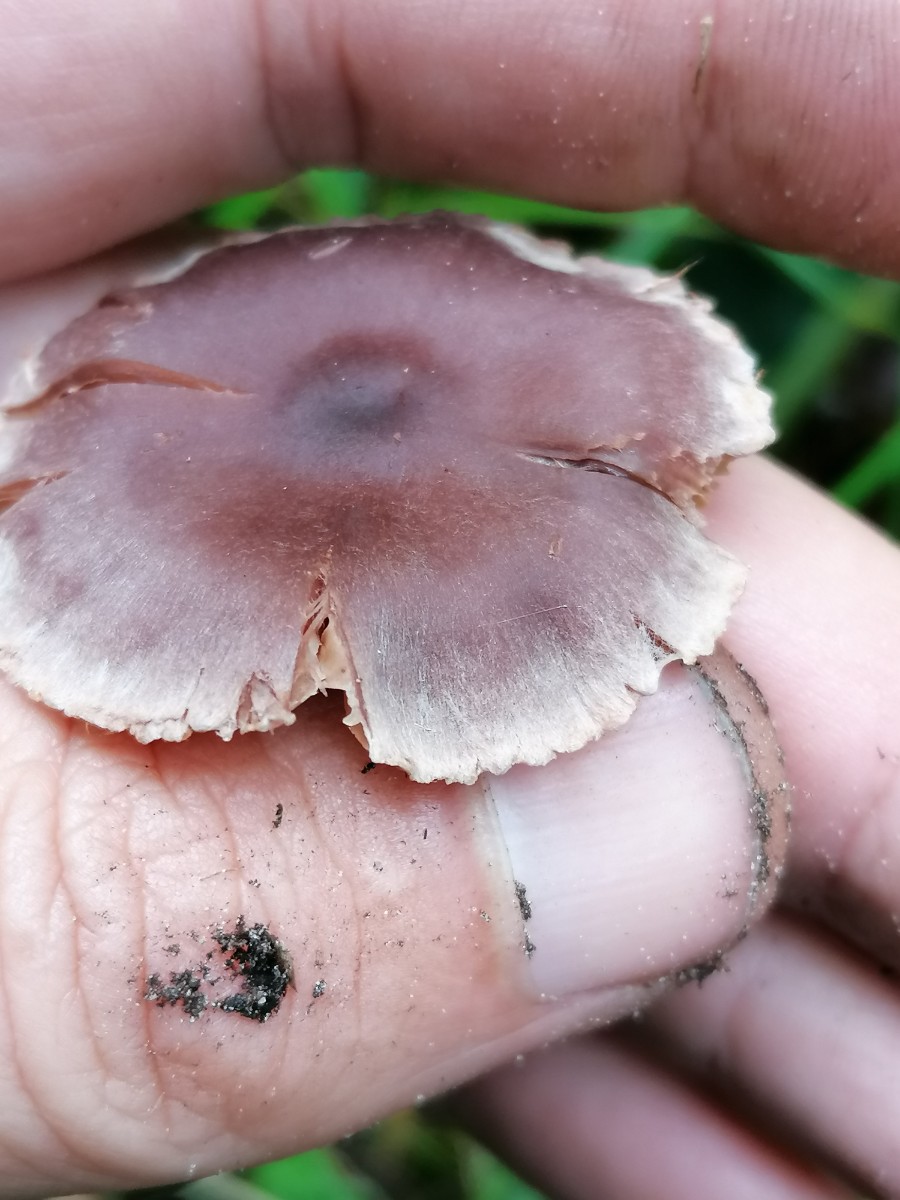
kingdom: Fungi
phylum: Basidiomycota
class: Agaricomycetes
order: Agaricales
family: Cortinariaceae
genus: Cortinarius
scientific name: Cortinarius
